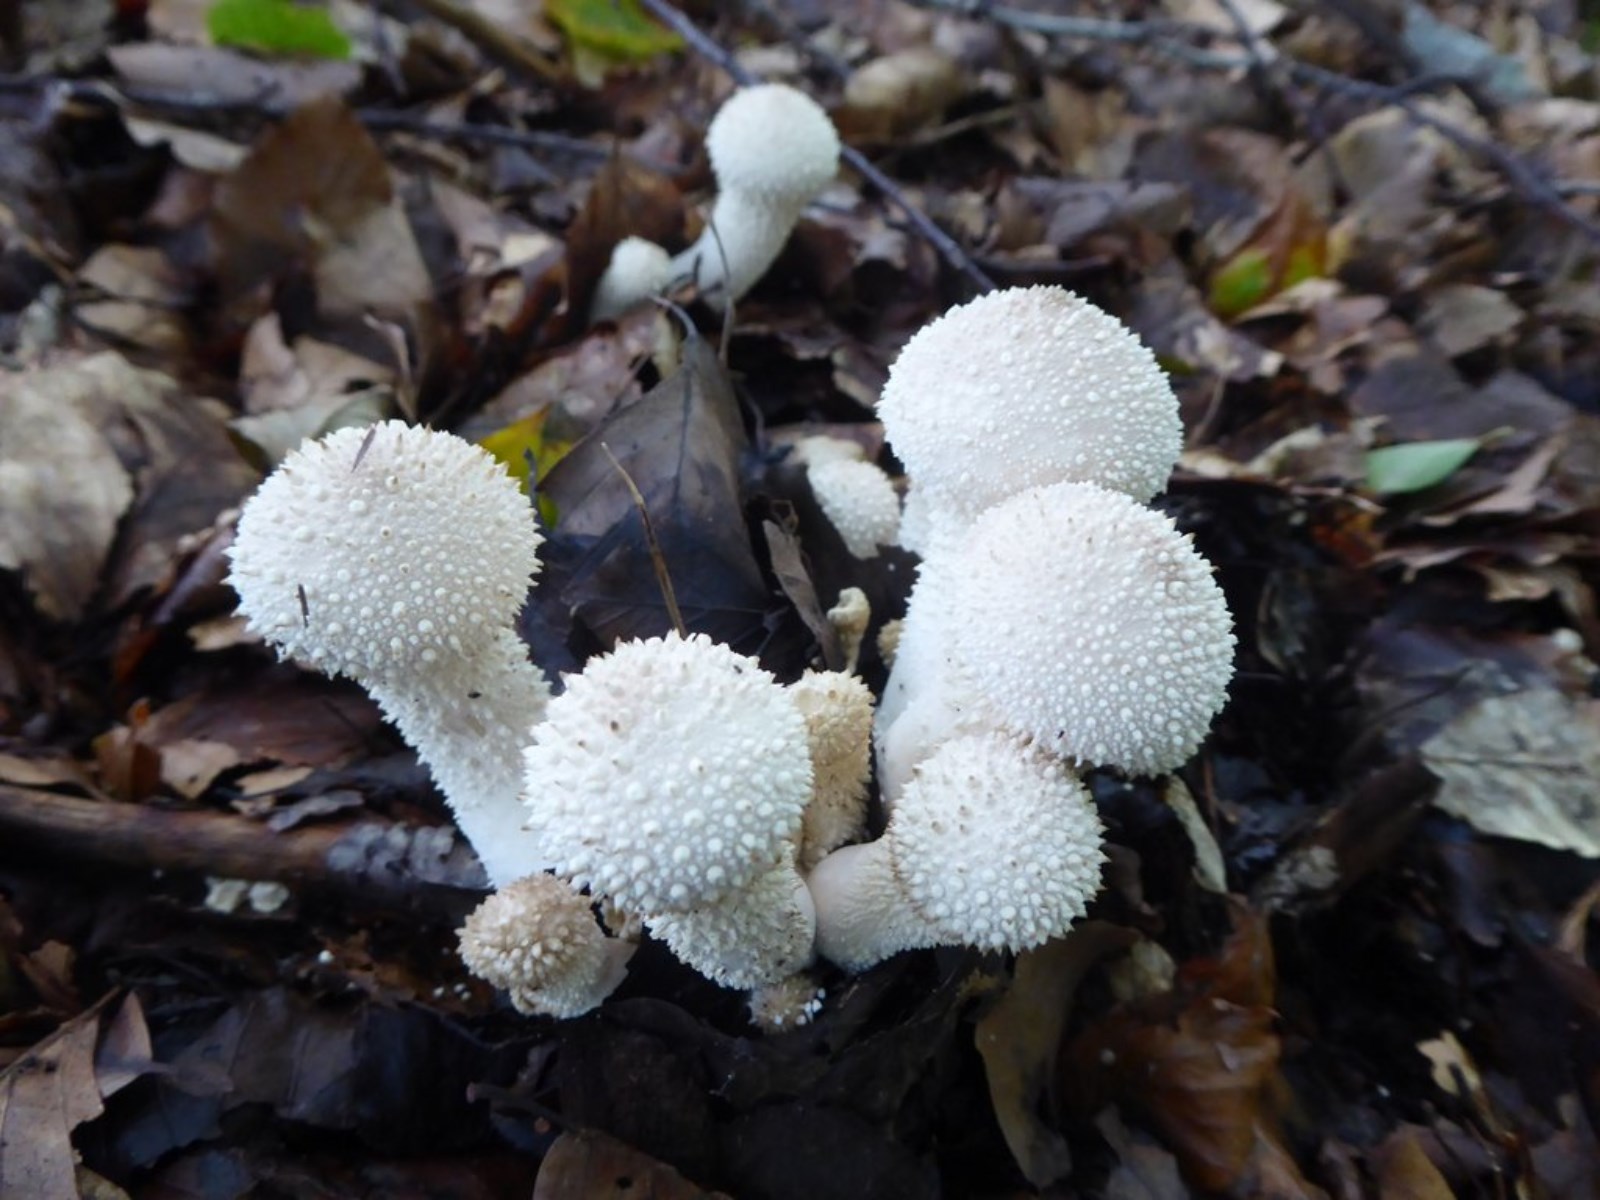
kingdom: Fungi
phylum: Basidiomycota
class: Agaricomycetes
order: Agaricales
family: Lycoperdaceae
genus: Lycoperdon
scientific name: Lycoperdon perlatum
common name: krystal-støvbold
